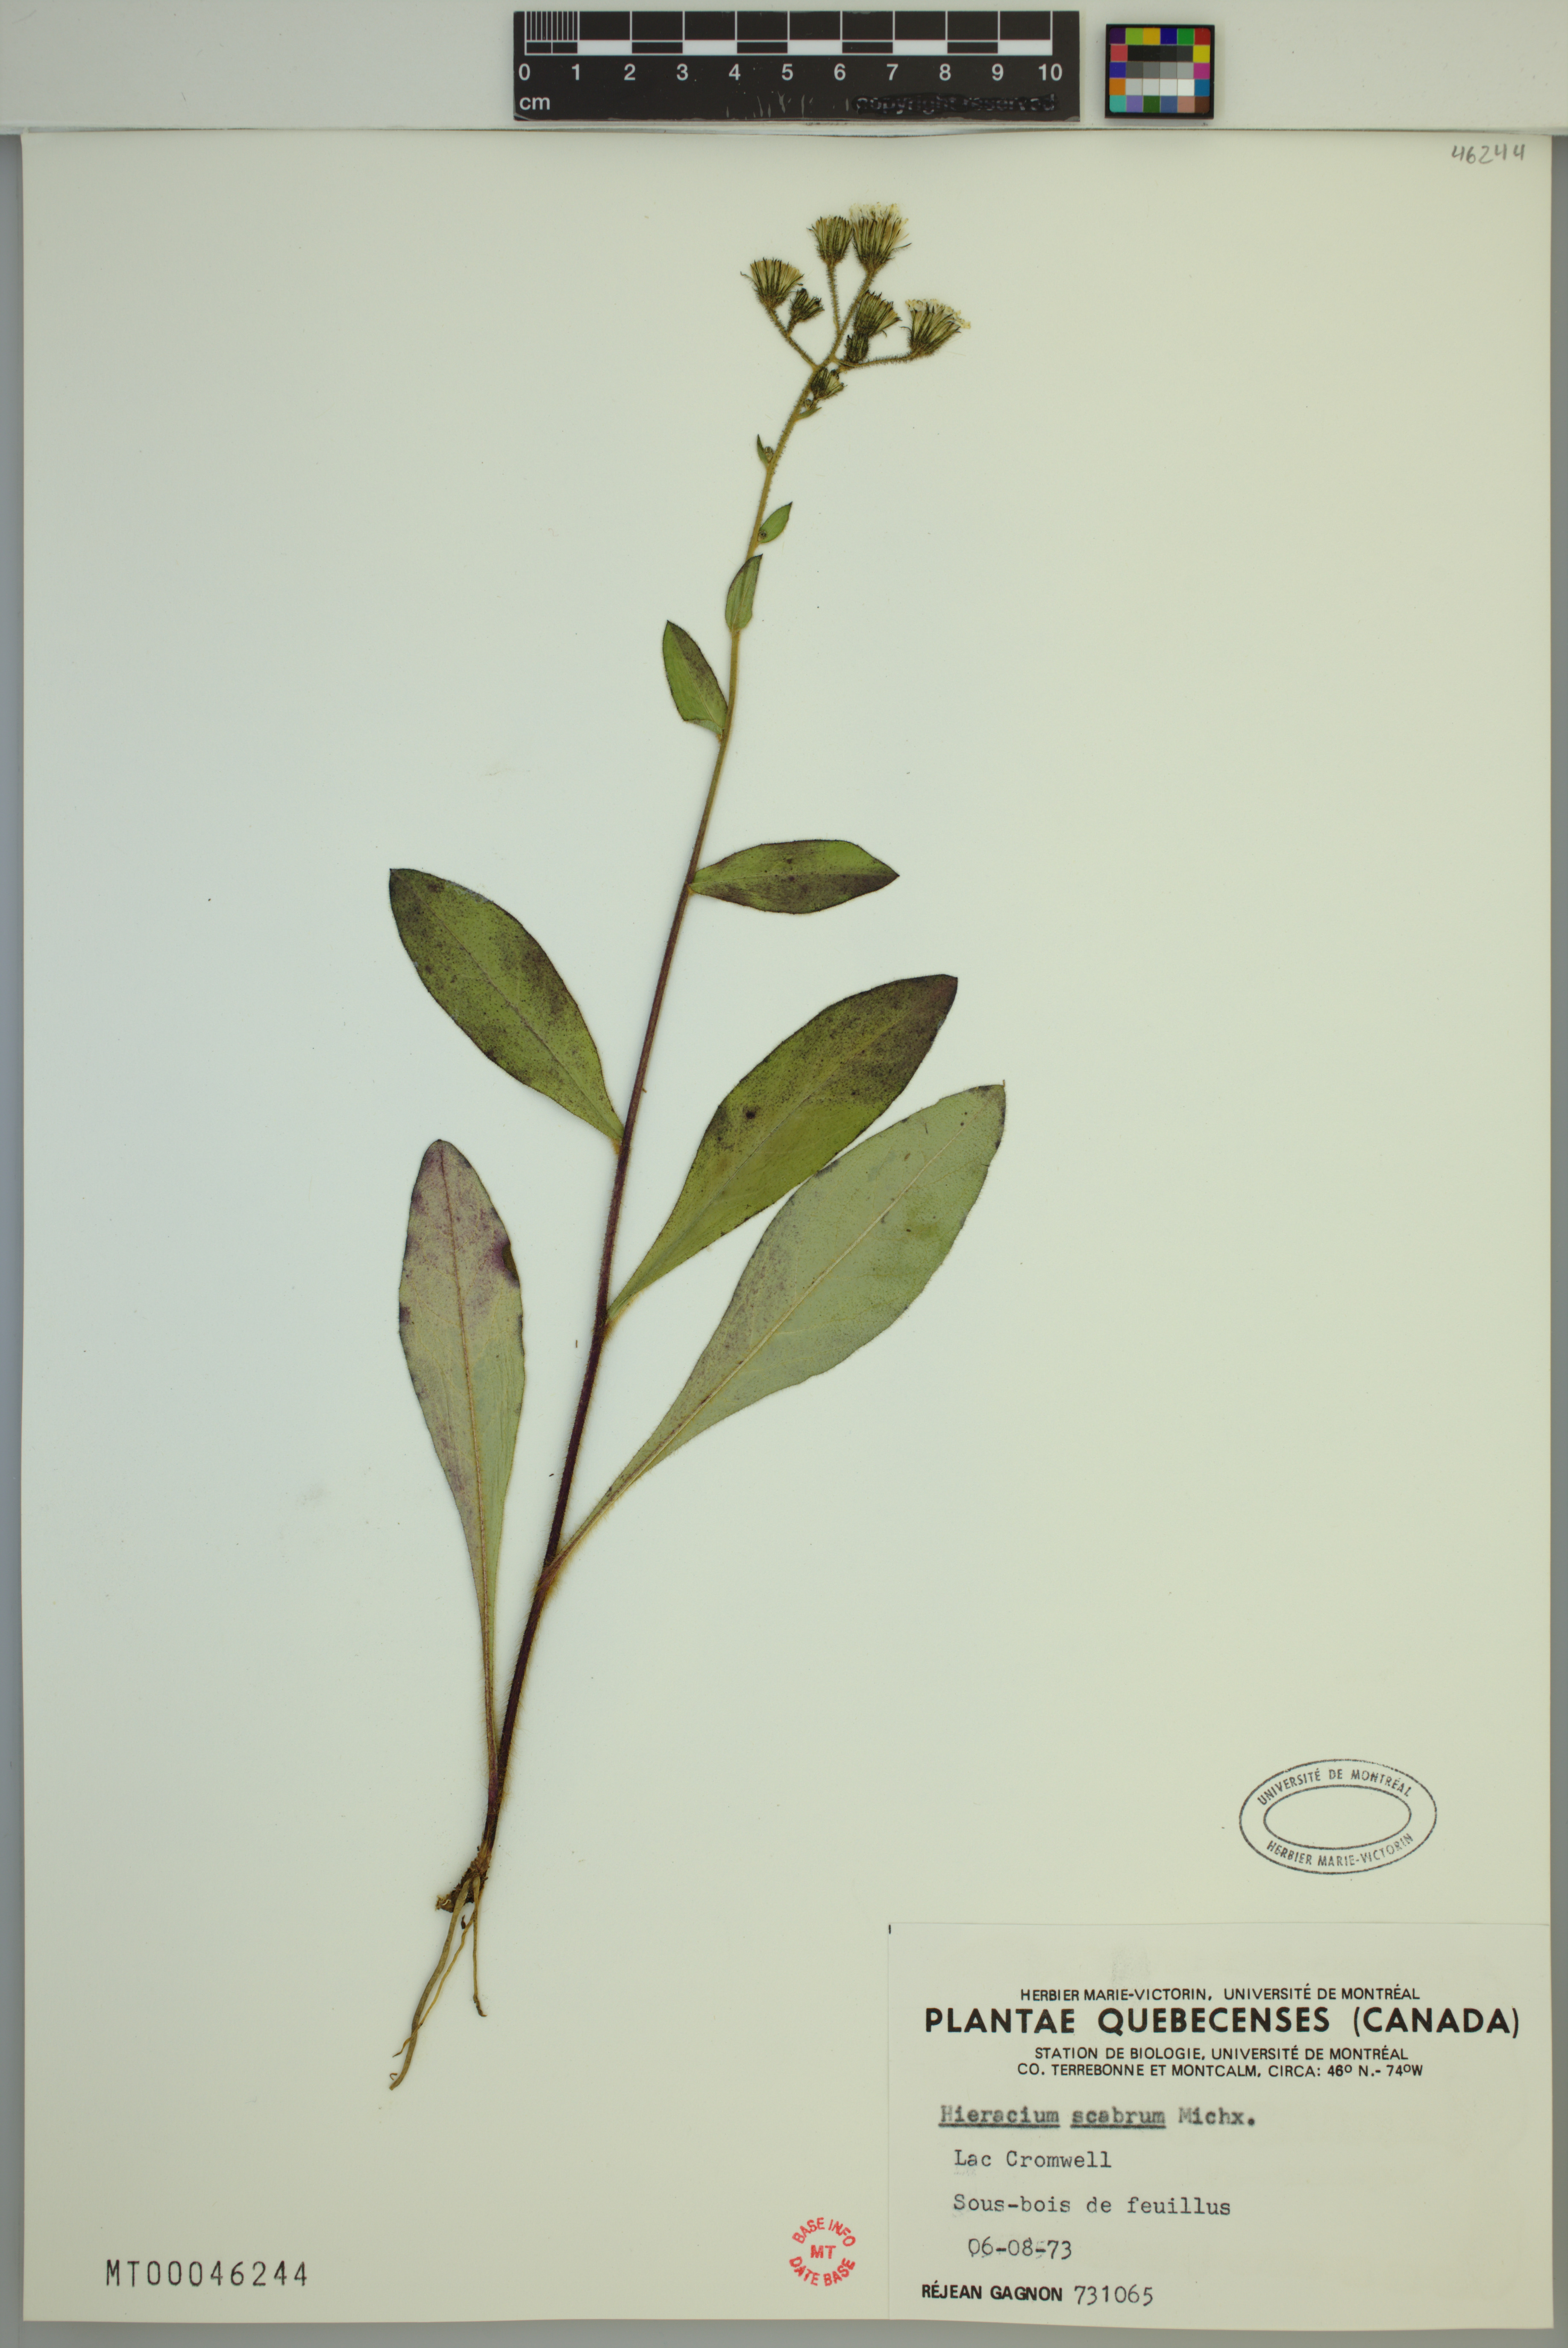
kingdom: Plantae
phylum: Tracheophyta
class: Magnoliopsida
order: Asterales
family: Asteraceae
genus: Hieracium
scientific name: Hieracium scabrum
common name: Rough hawkweed
